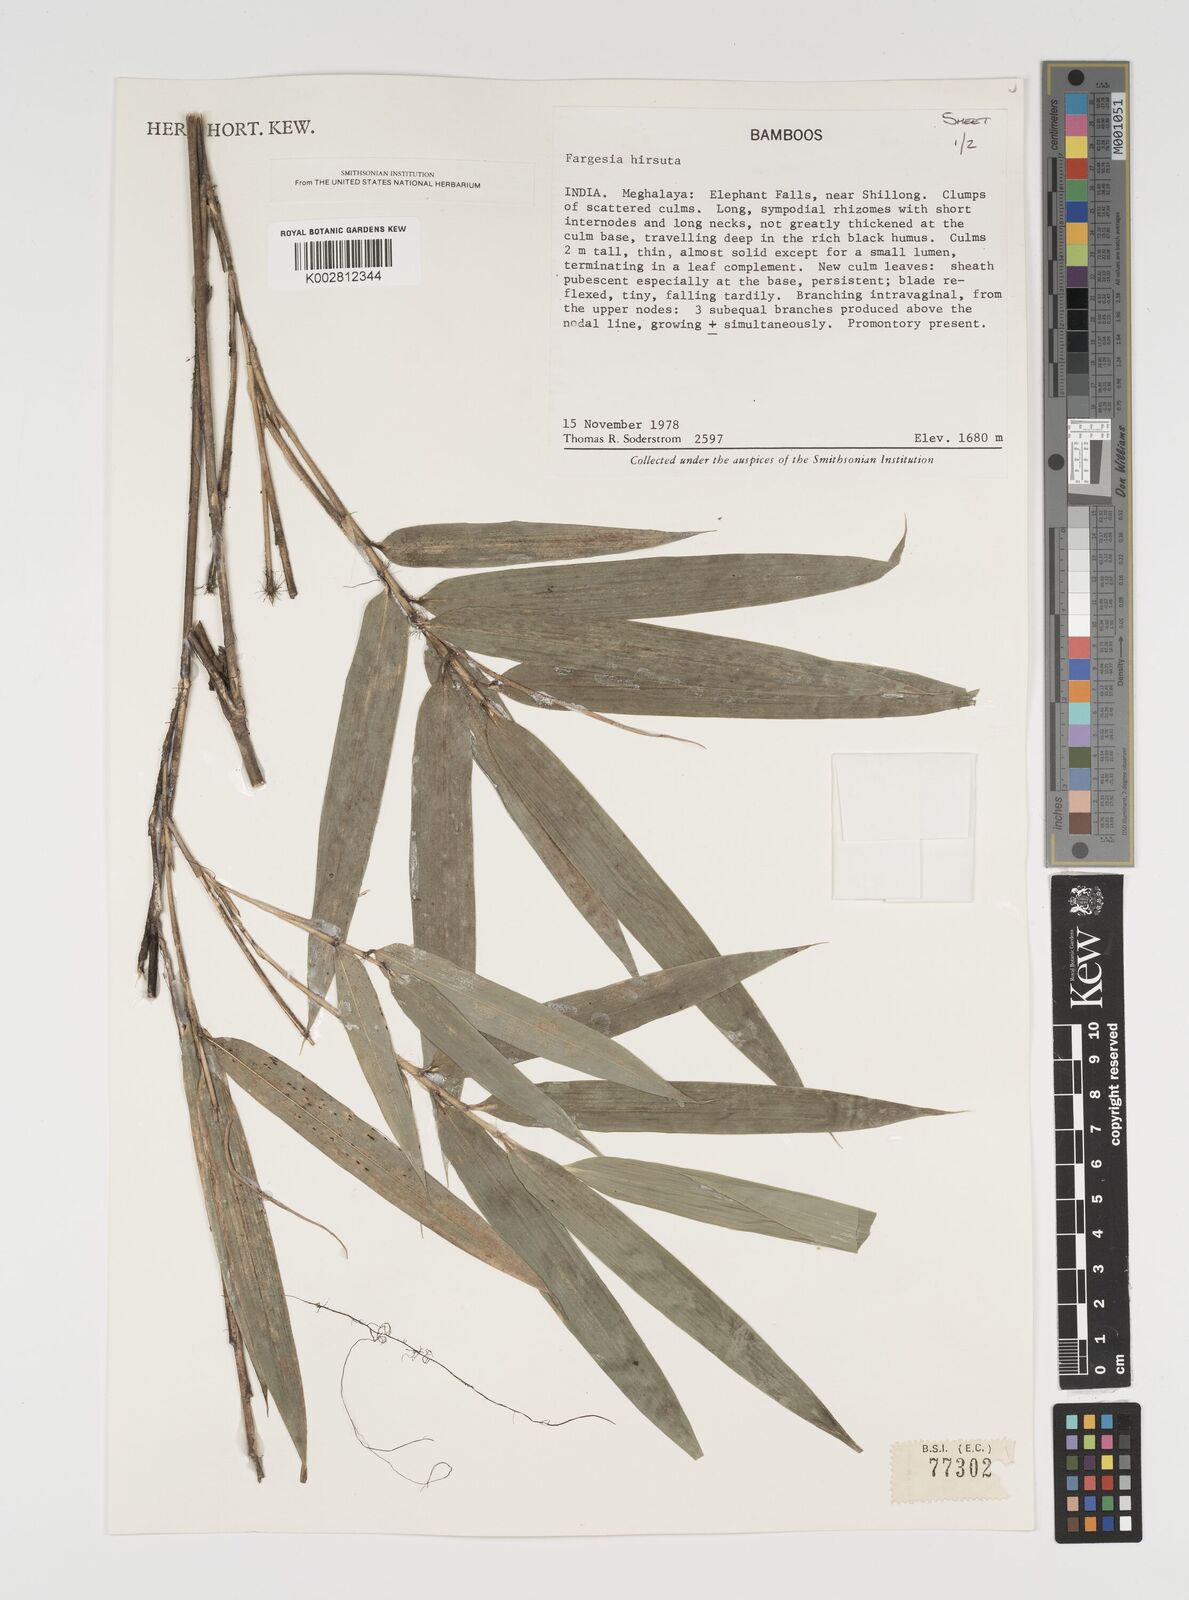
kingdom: Plantae
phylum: Tracheophyta
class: Liliopsida
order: Poales
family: Poaceae
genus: Yushania
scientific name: Yushania hirsuta
